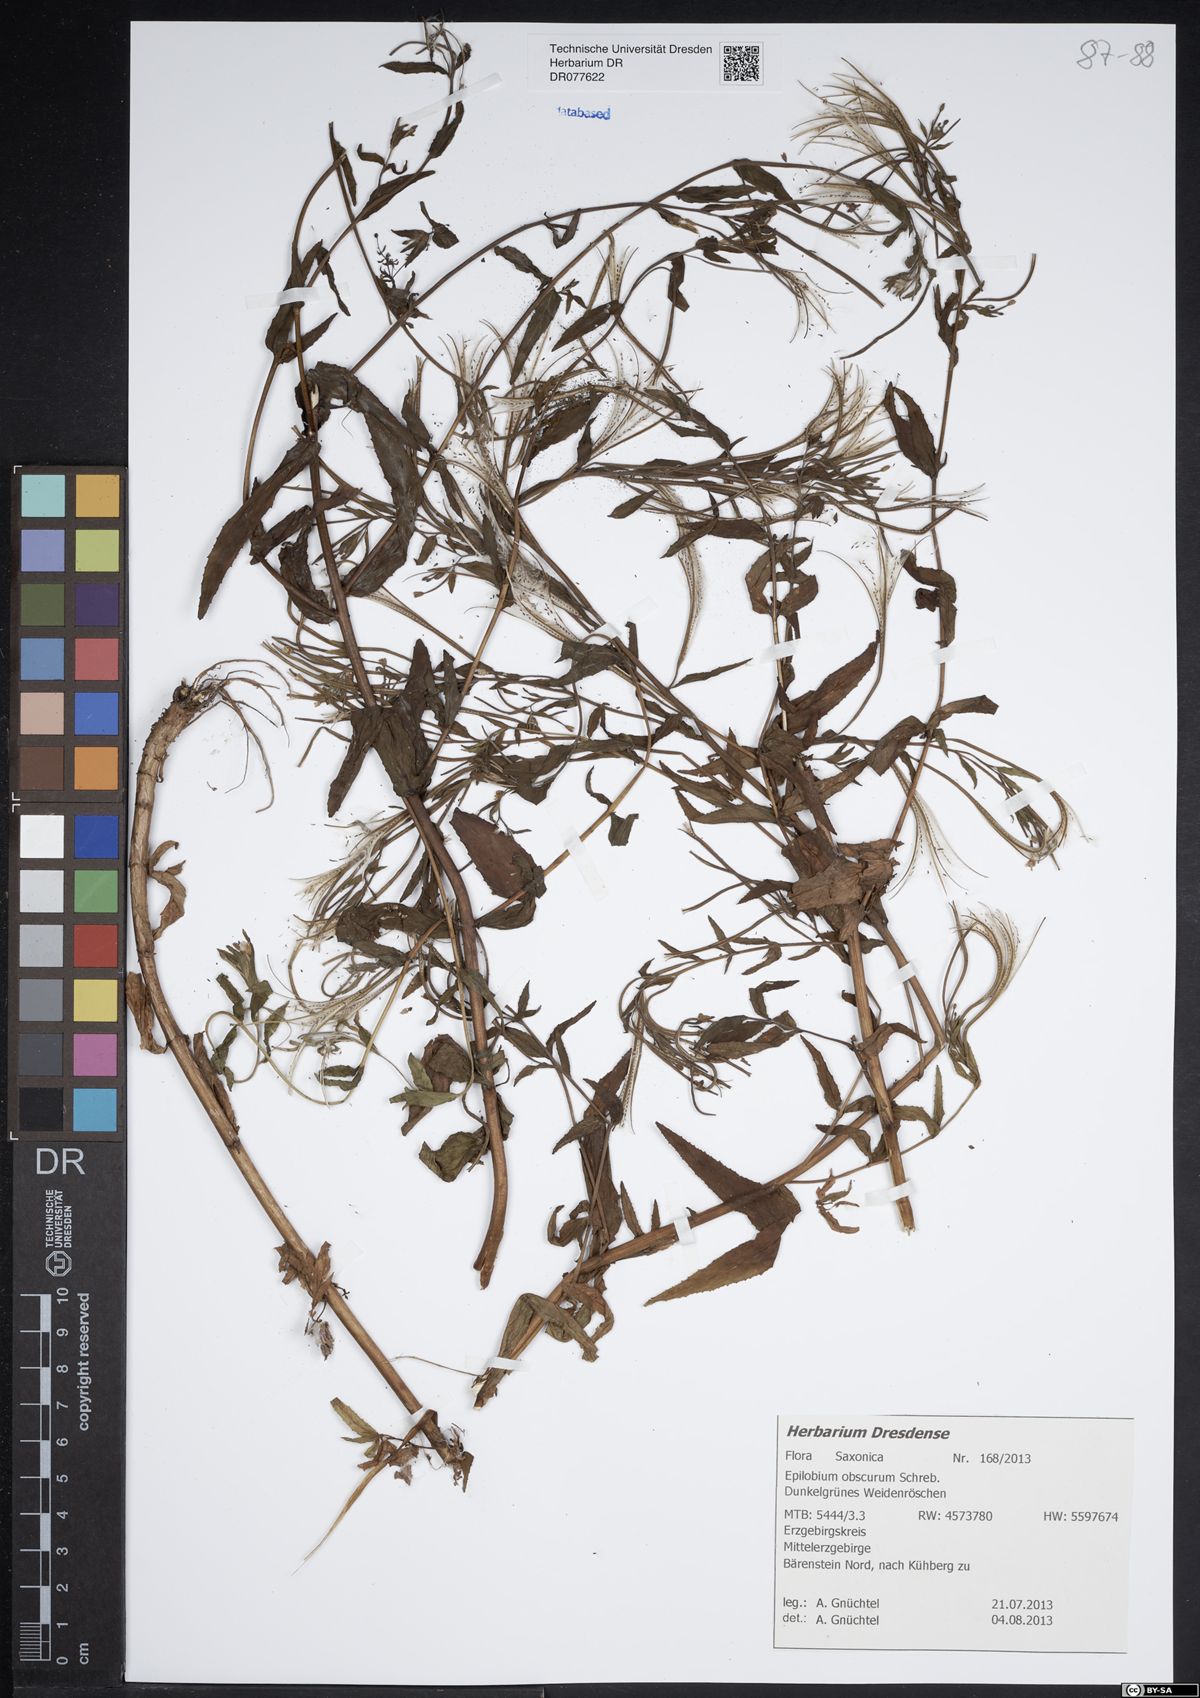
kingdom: Plantae
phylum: Tracheophyta
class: Magnoliopsida
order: Myrtales
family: Onagraceae
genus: Epilobium
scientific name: Epilobium obscurum
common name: Short-fruited willowherb
